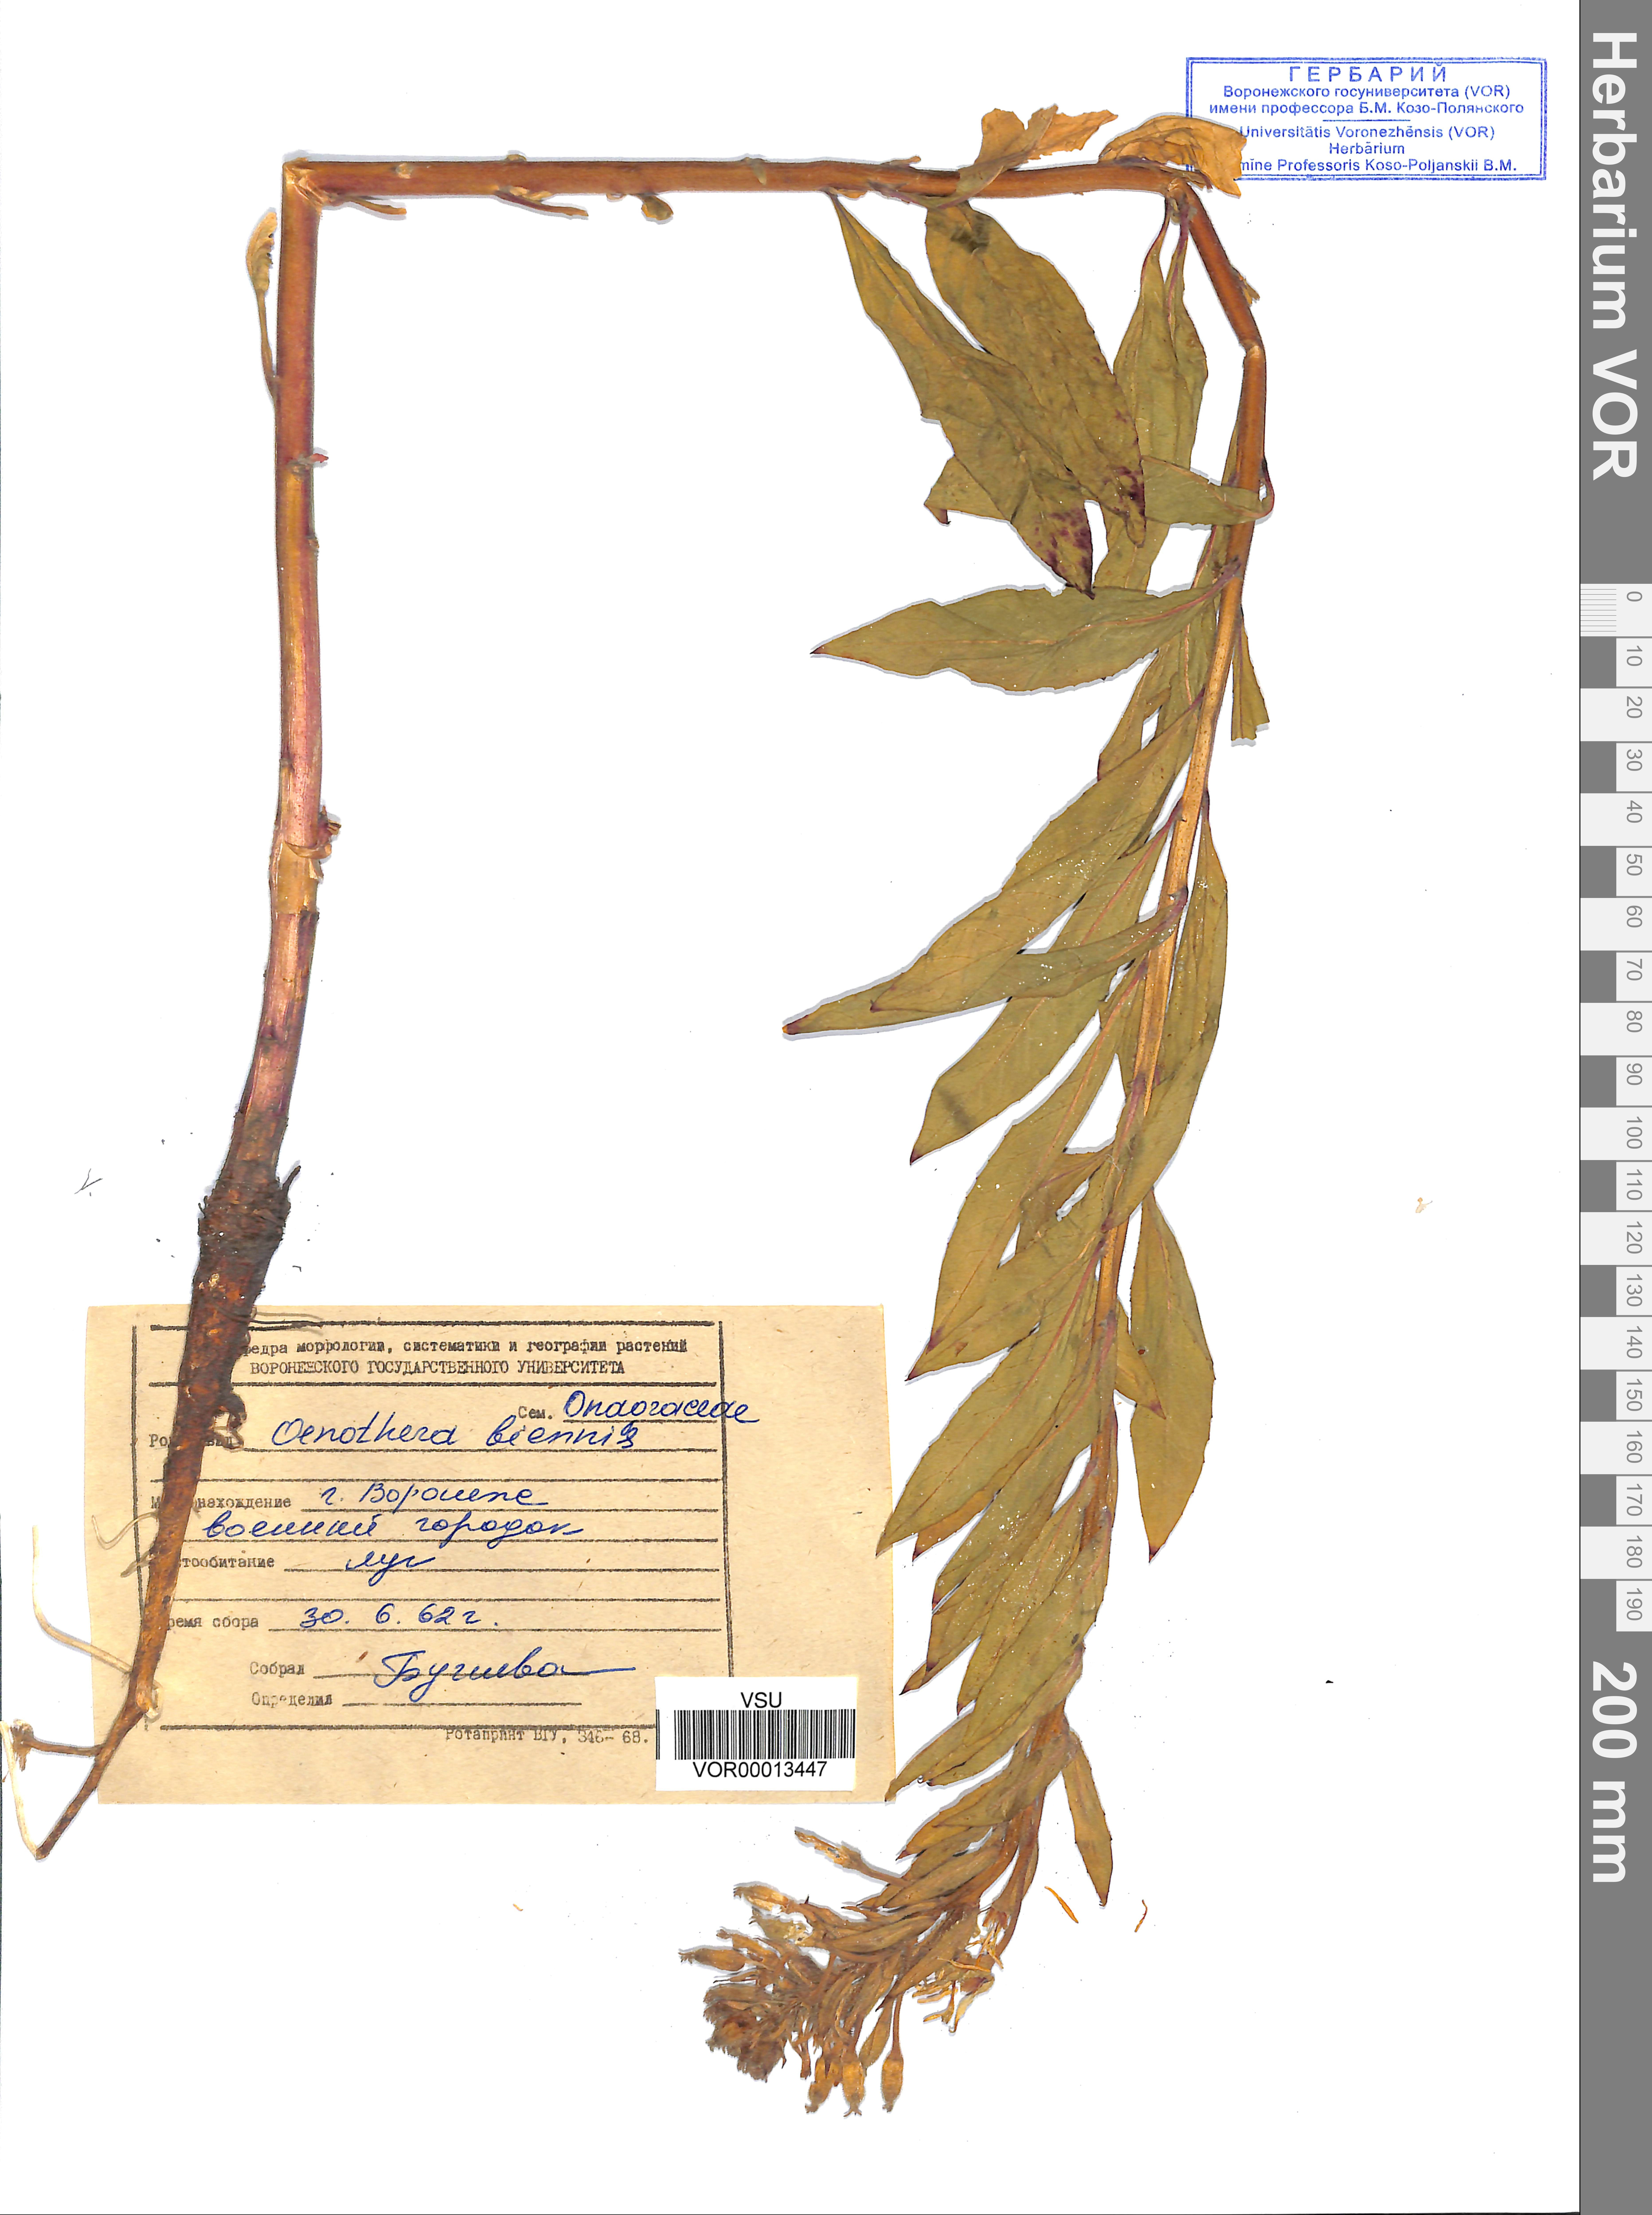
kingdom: Plantae
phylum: Tracheophyta
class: Magnoliopsida
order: Myrtales
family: Onagraceae
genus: Oenothera
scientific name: Oenothera biennis
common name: Common evening-primrose
